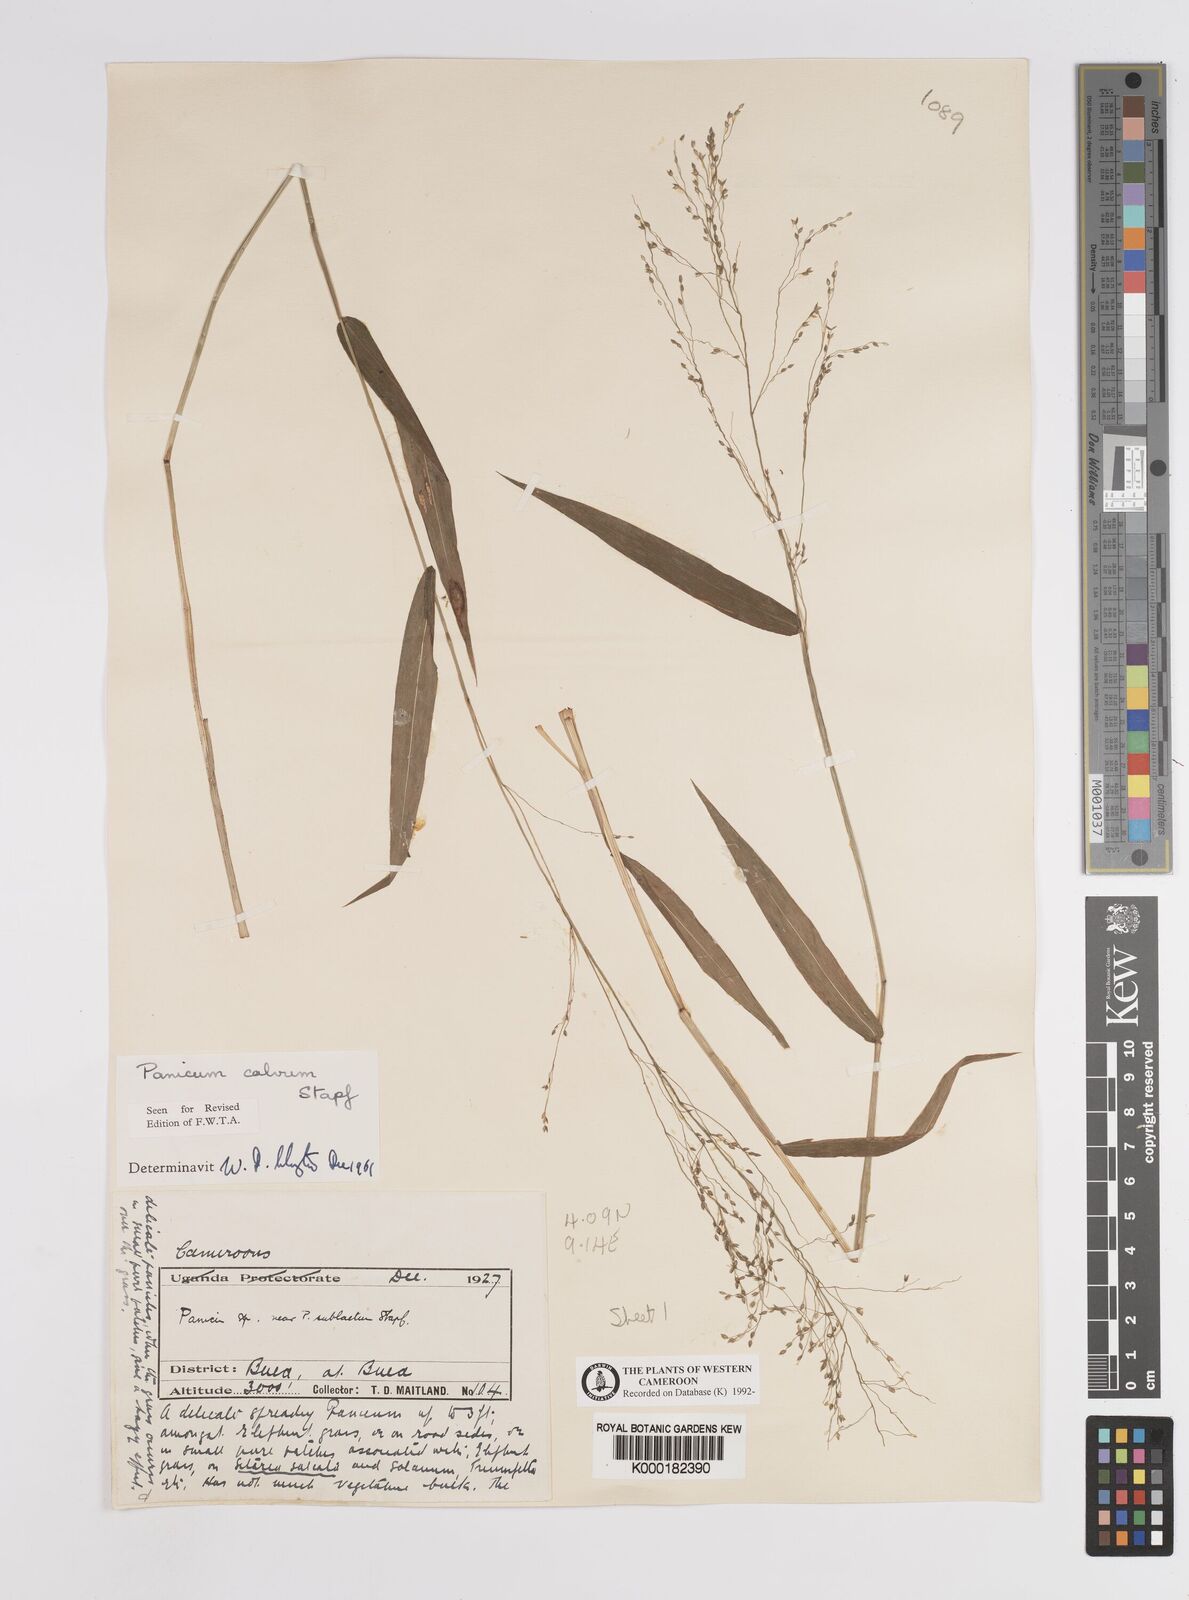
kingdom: Plantae
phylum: Tracheophyta
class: Liliopsida
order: Poales
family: Poaceae
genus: Panicum
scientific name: Panicum calvum
